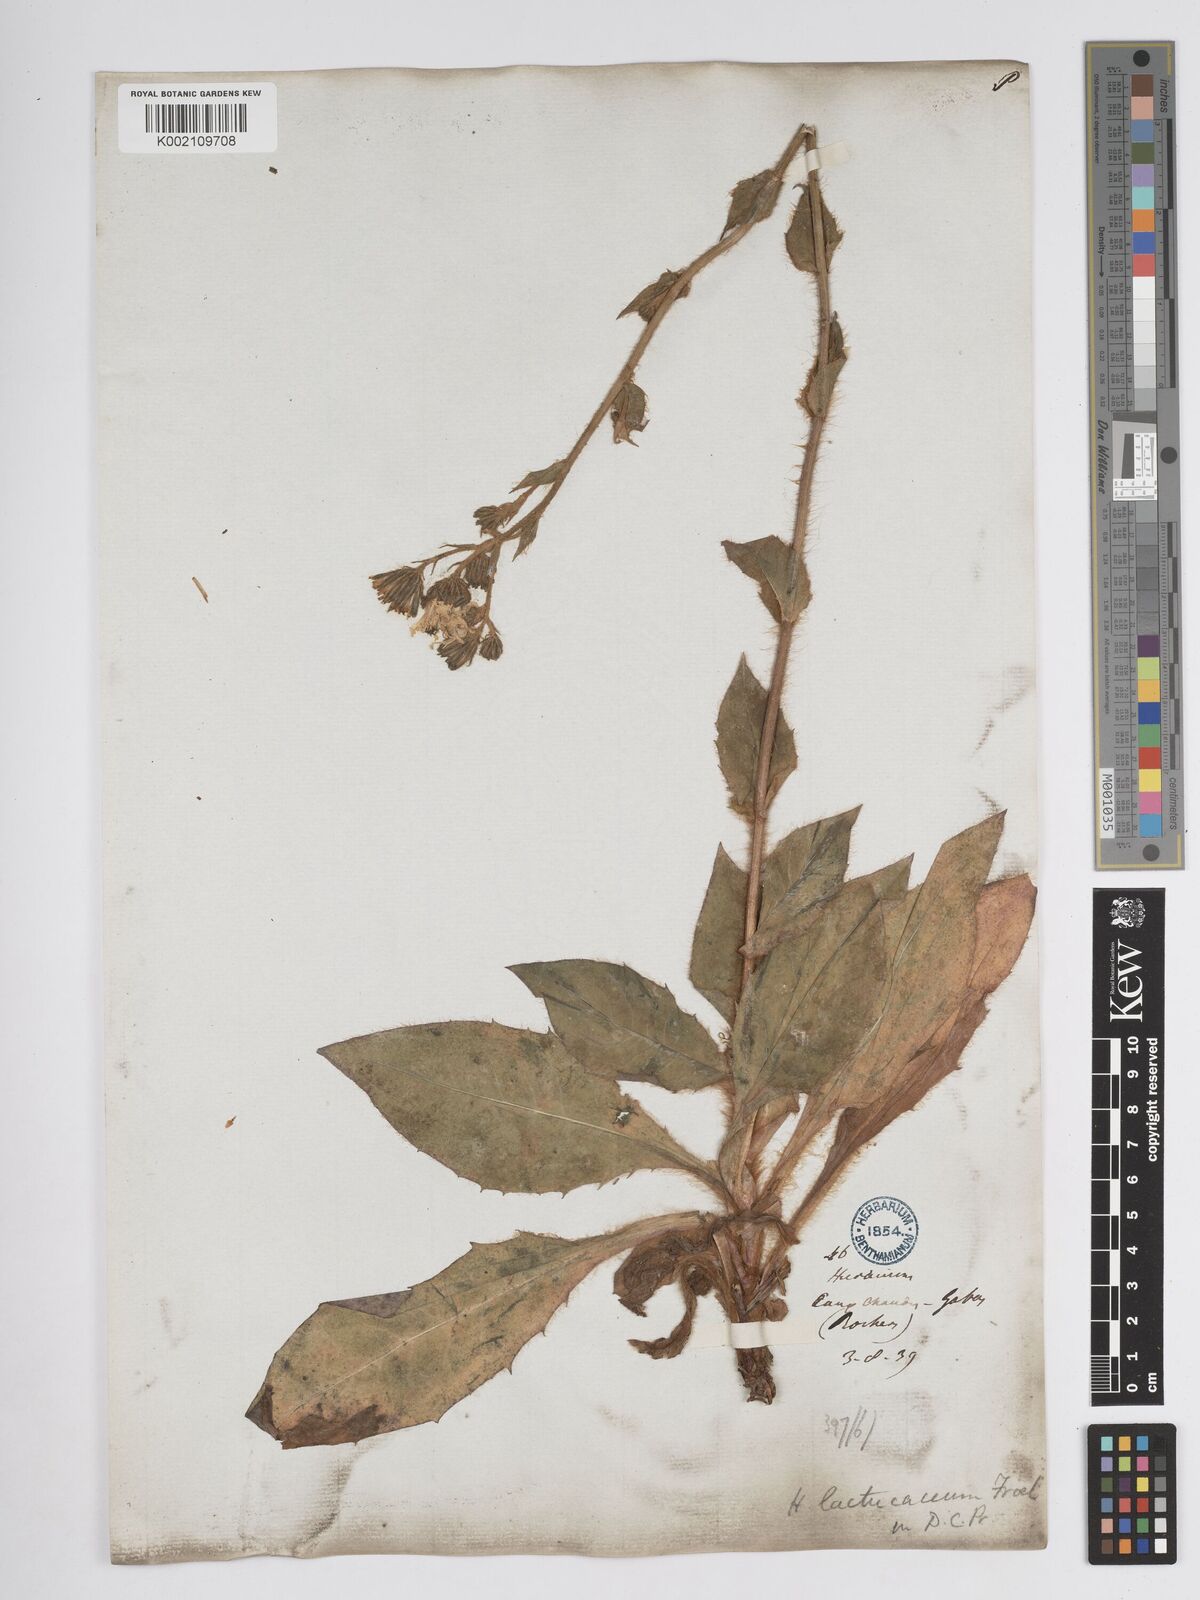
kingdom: Plantae
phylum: Tracheophyta
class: Magnoliopsida
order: Asterales
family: Asteraceae
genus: Hieracium
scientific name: Hieracium nobile
